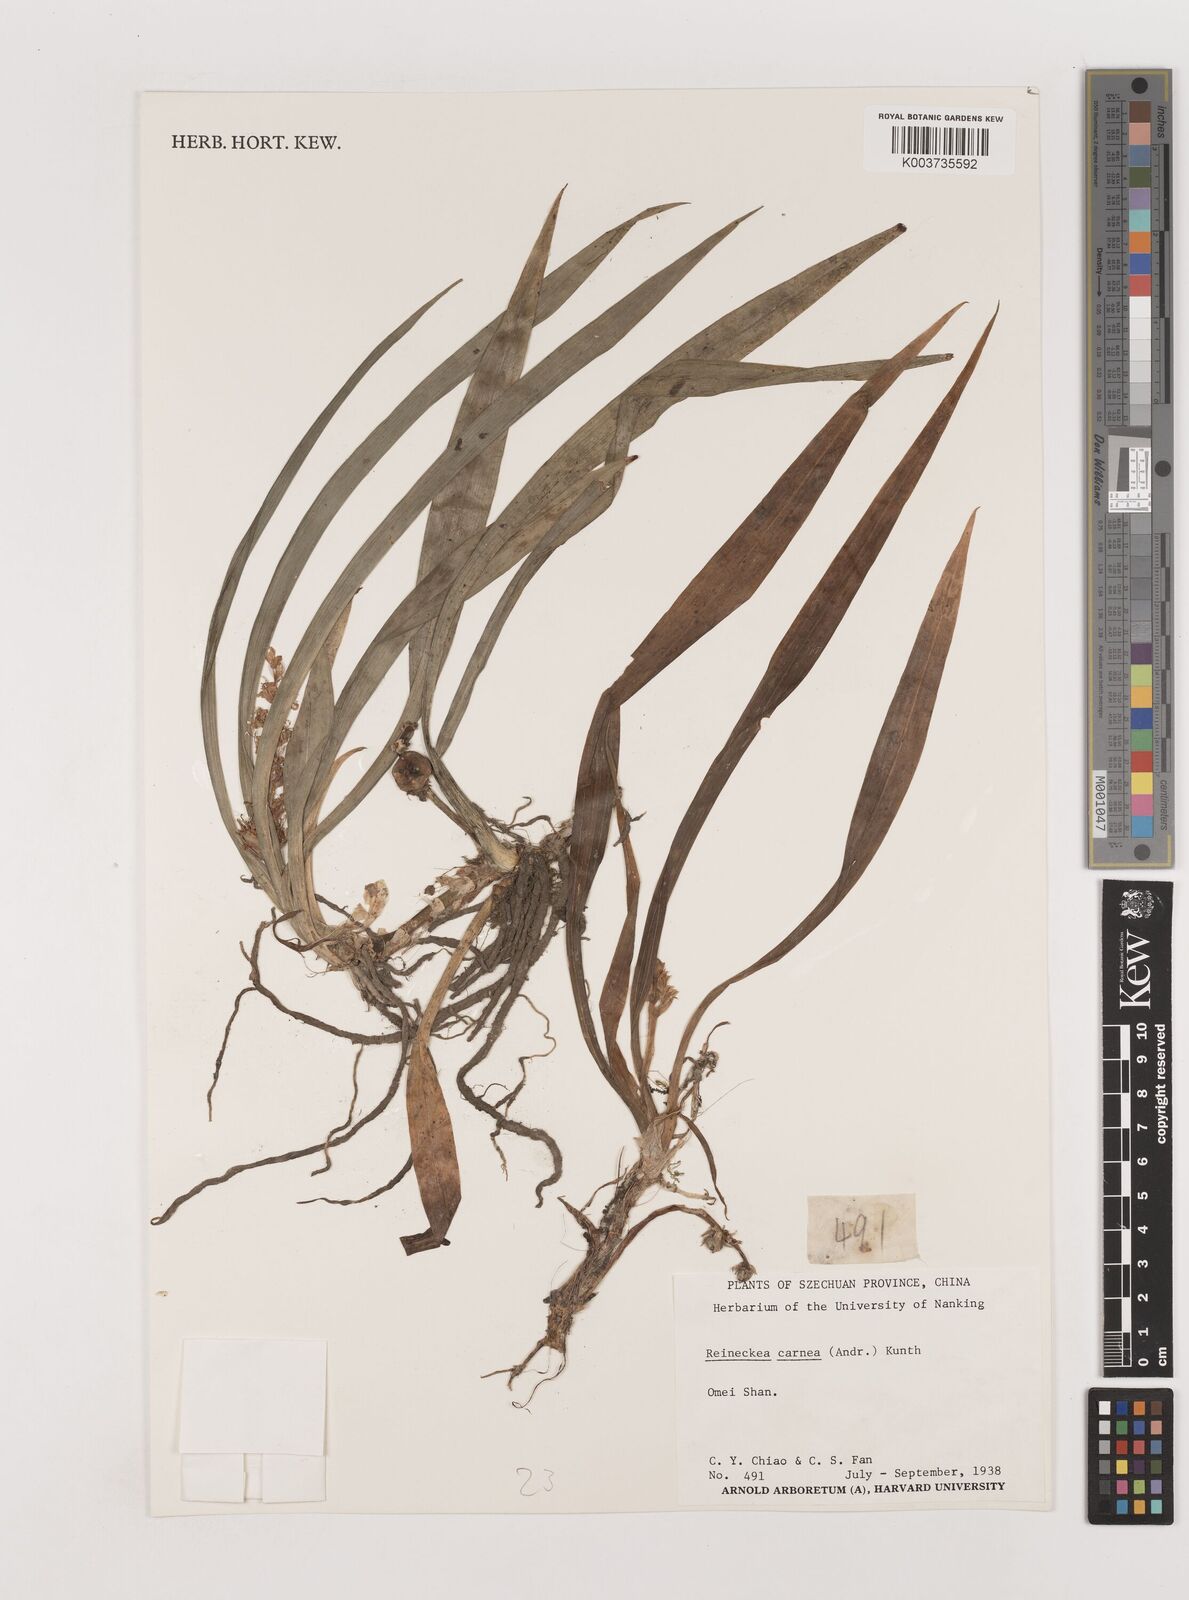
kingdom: Plantae
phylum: Tracheophyta
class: Liliopsida
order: Asparagales
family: Asparagaceae
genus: Reineckea
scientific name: Reineckea carnea
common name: Reineckea
